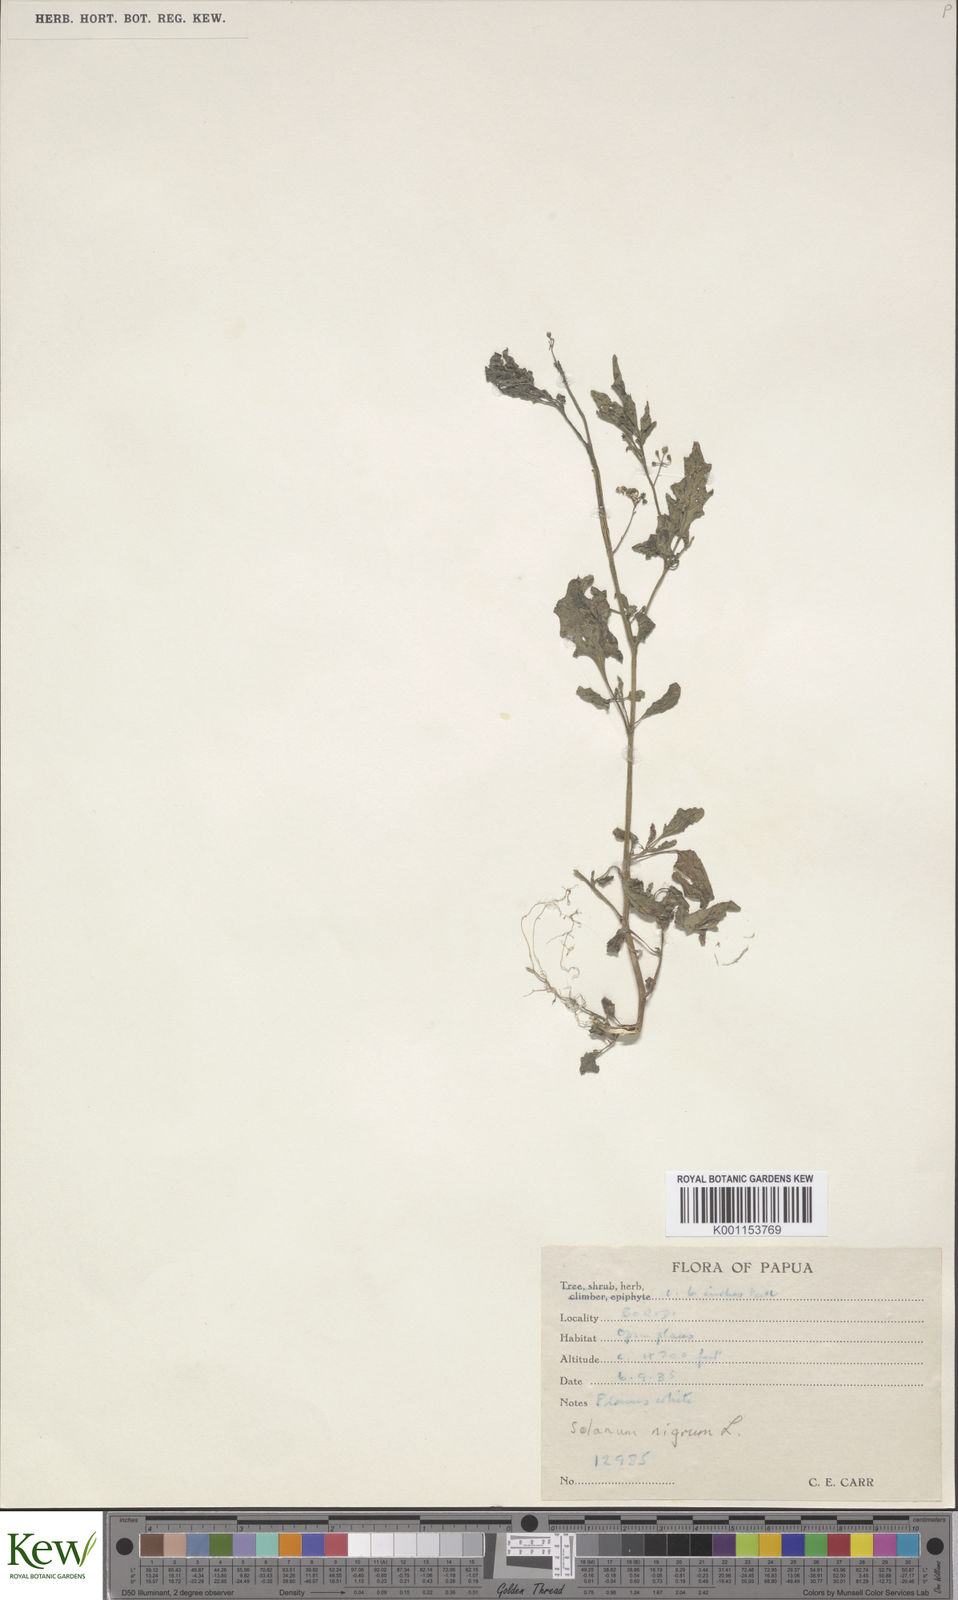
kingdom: Plantae
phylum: Tracheophyta
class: Magnoliopsida
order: Solanales
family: Solanaceae
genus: Solanum
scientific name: Solanum nigrum
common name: Black nightshade
